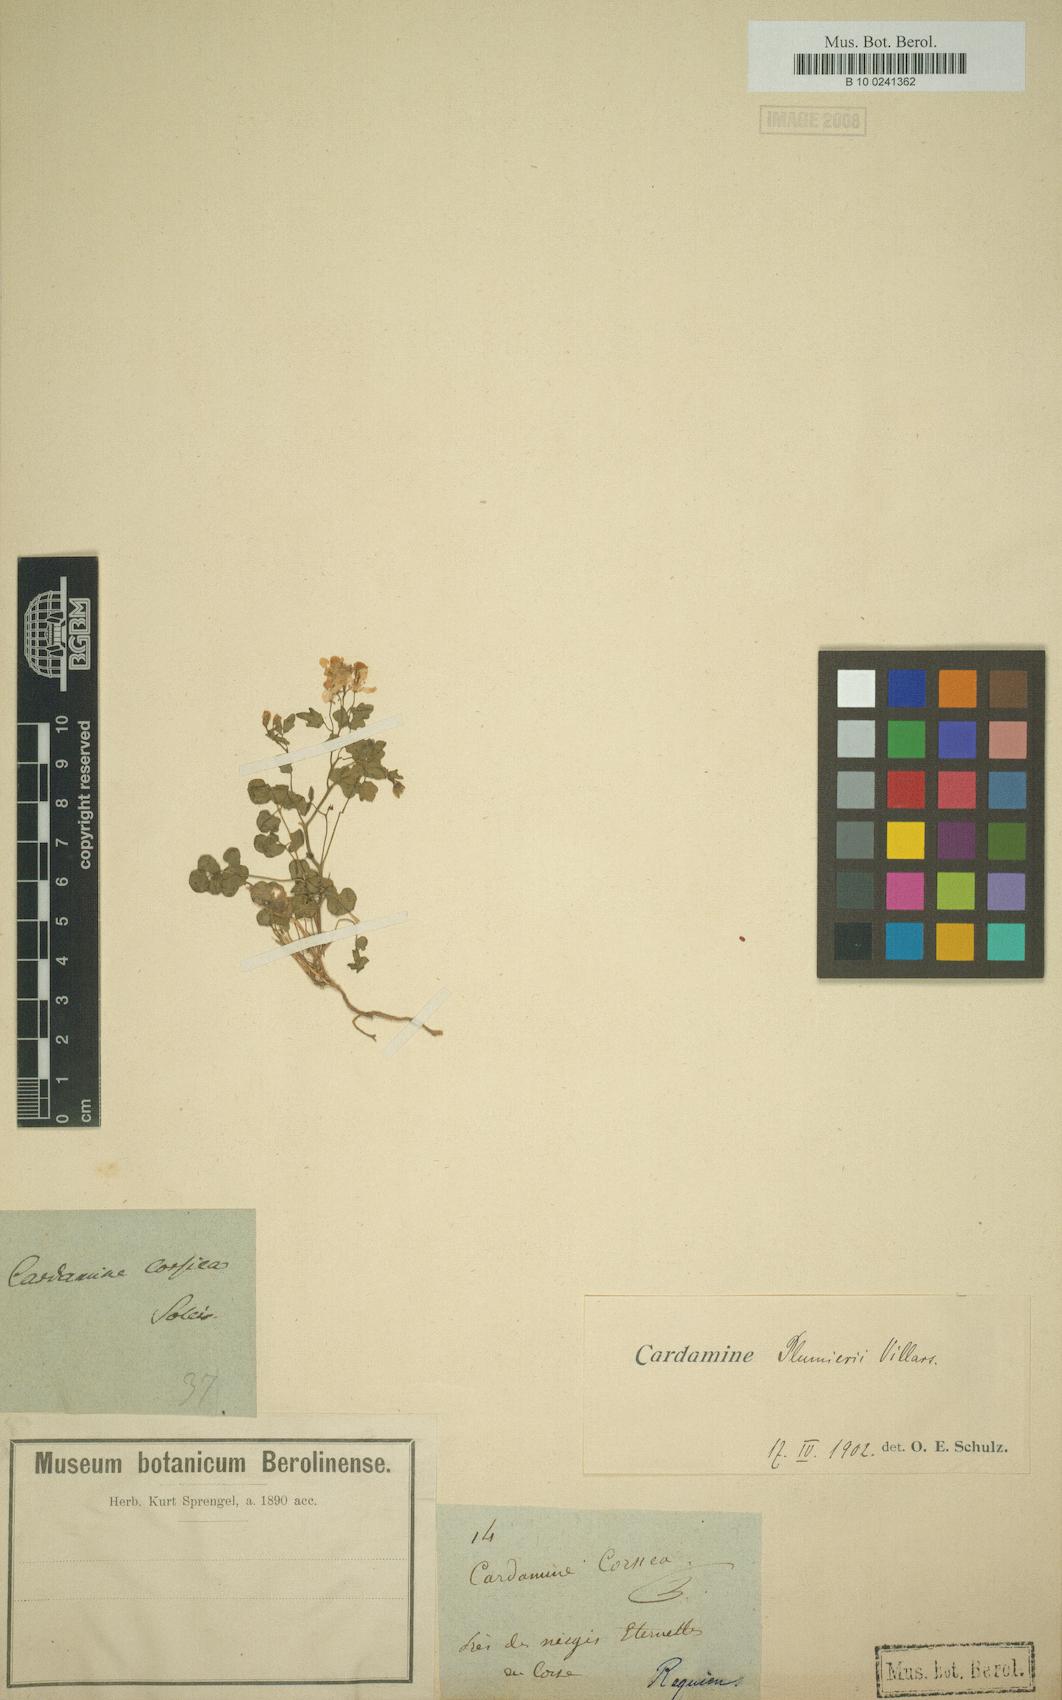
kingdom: Plantae
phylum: Tracheophyta
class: Magnoliopsida
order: Brassicales
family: Brassicaceae
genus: Cardamine
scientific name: Cardamine plumierii
